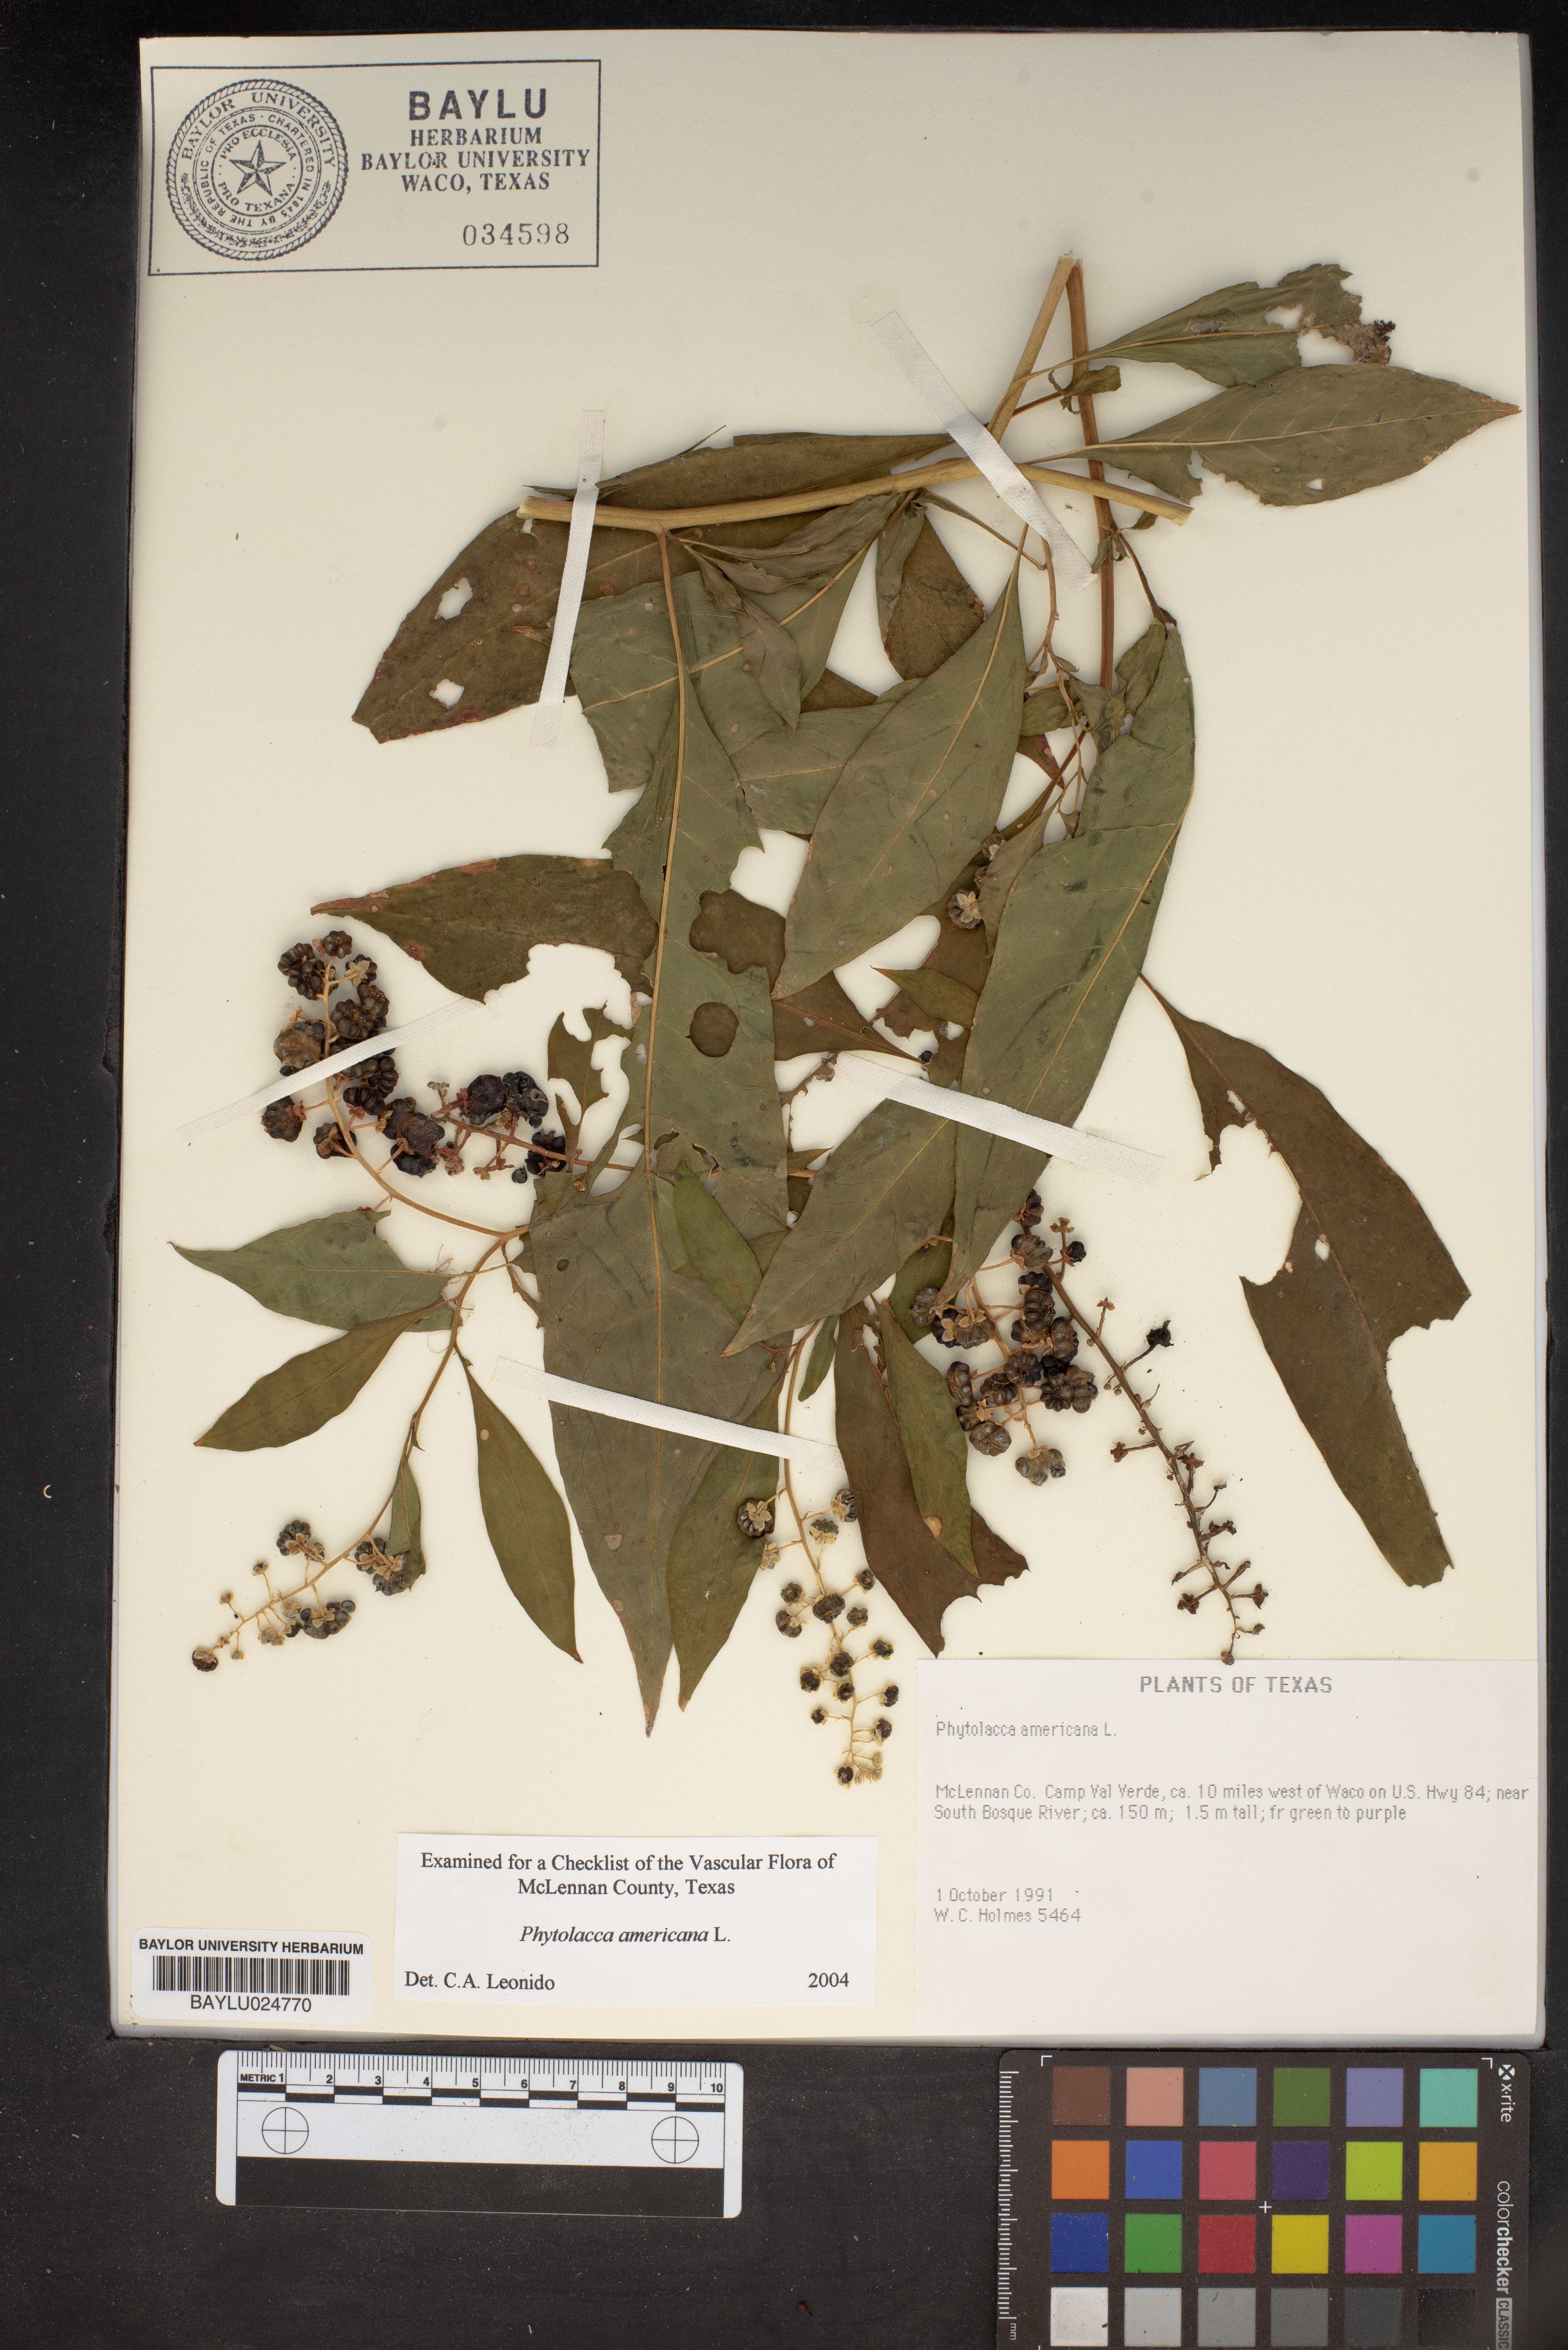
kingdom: Plantae
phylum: Tracheophyta
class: Magnoliopsida
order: Caryophyllales
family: Phytolaccaceae
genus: Phytolacca
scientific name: Phytolacca americana
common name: American pokeweed
